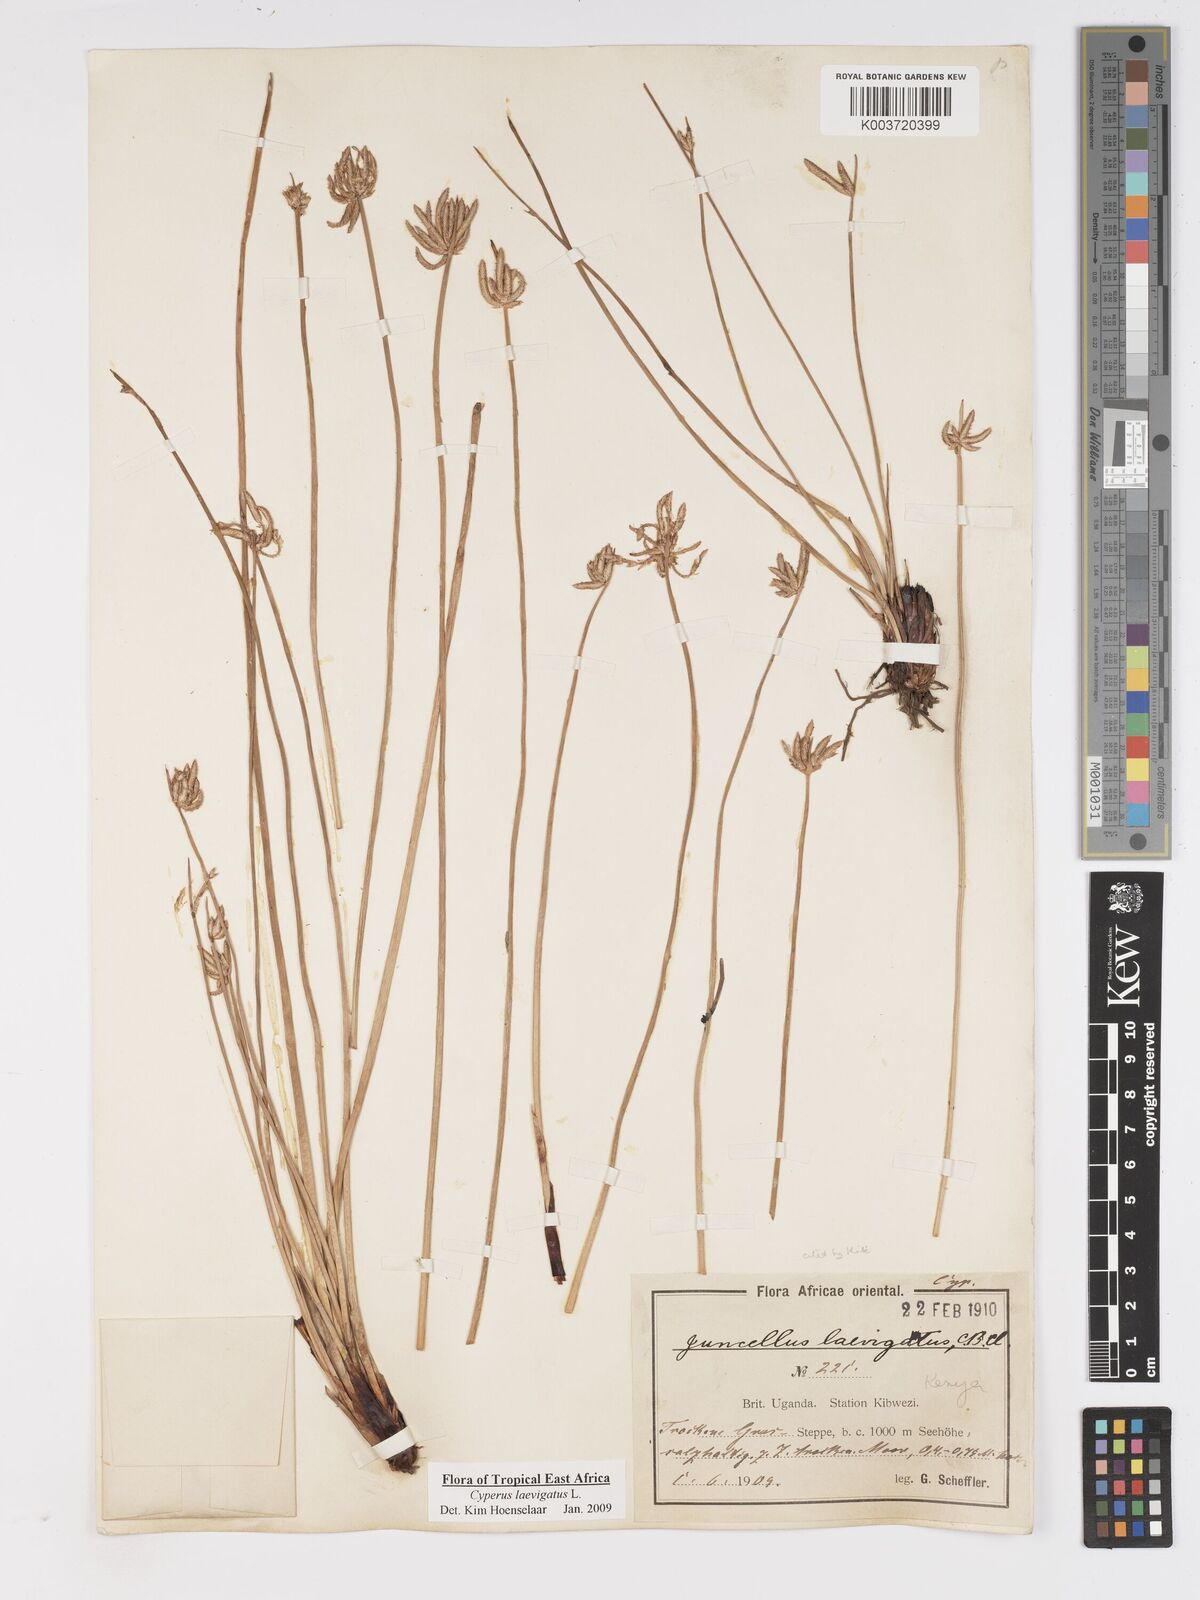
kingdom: Plantae
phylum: Tracheophyta
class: Liliopsida
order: Poales
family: Cyperaceae
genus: Cyperus
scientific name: Cyperus laevigatus
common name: Smooth flat sedge
